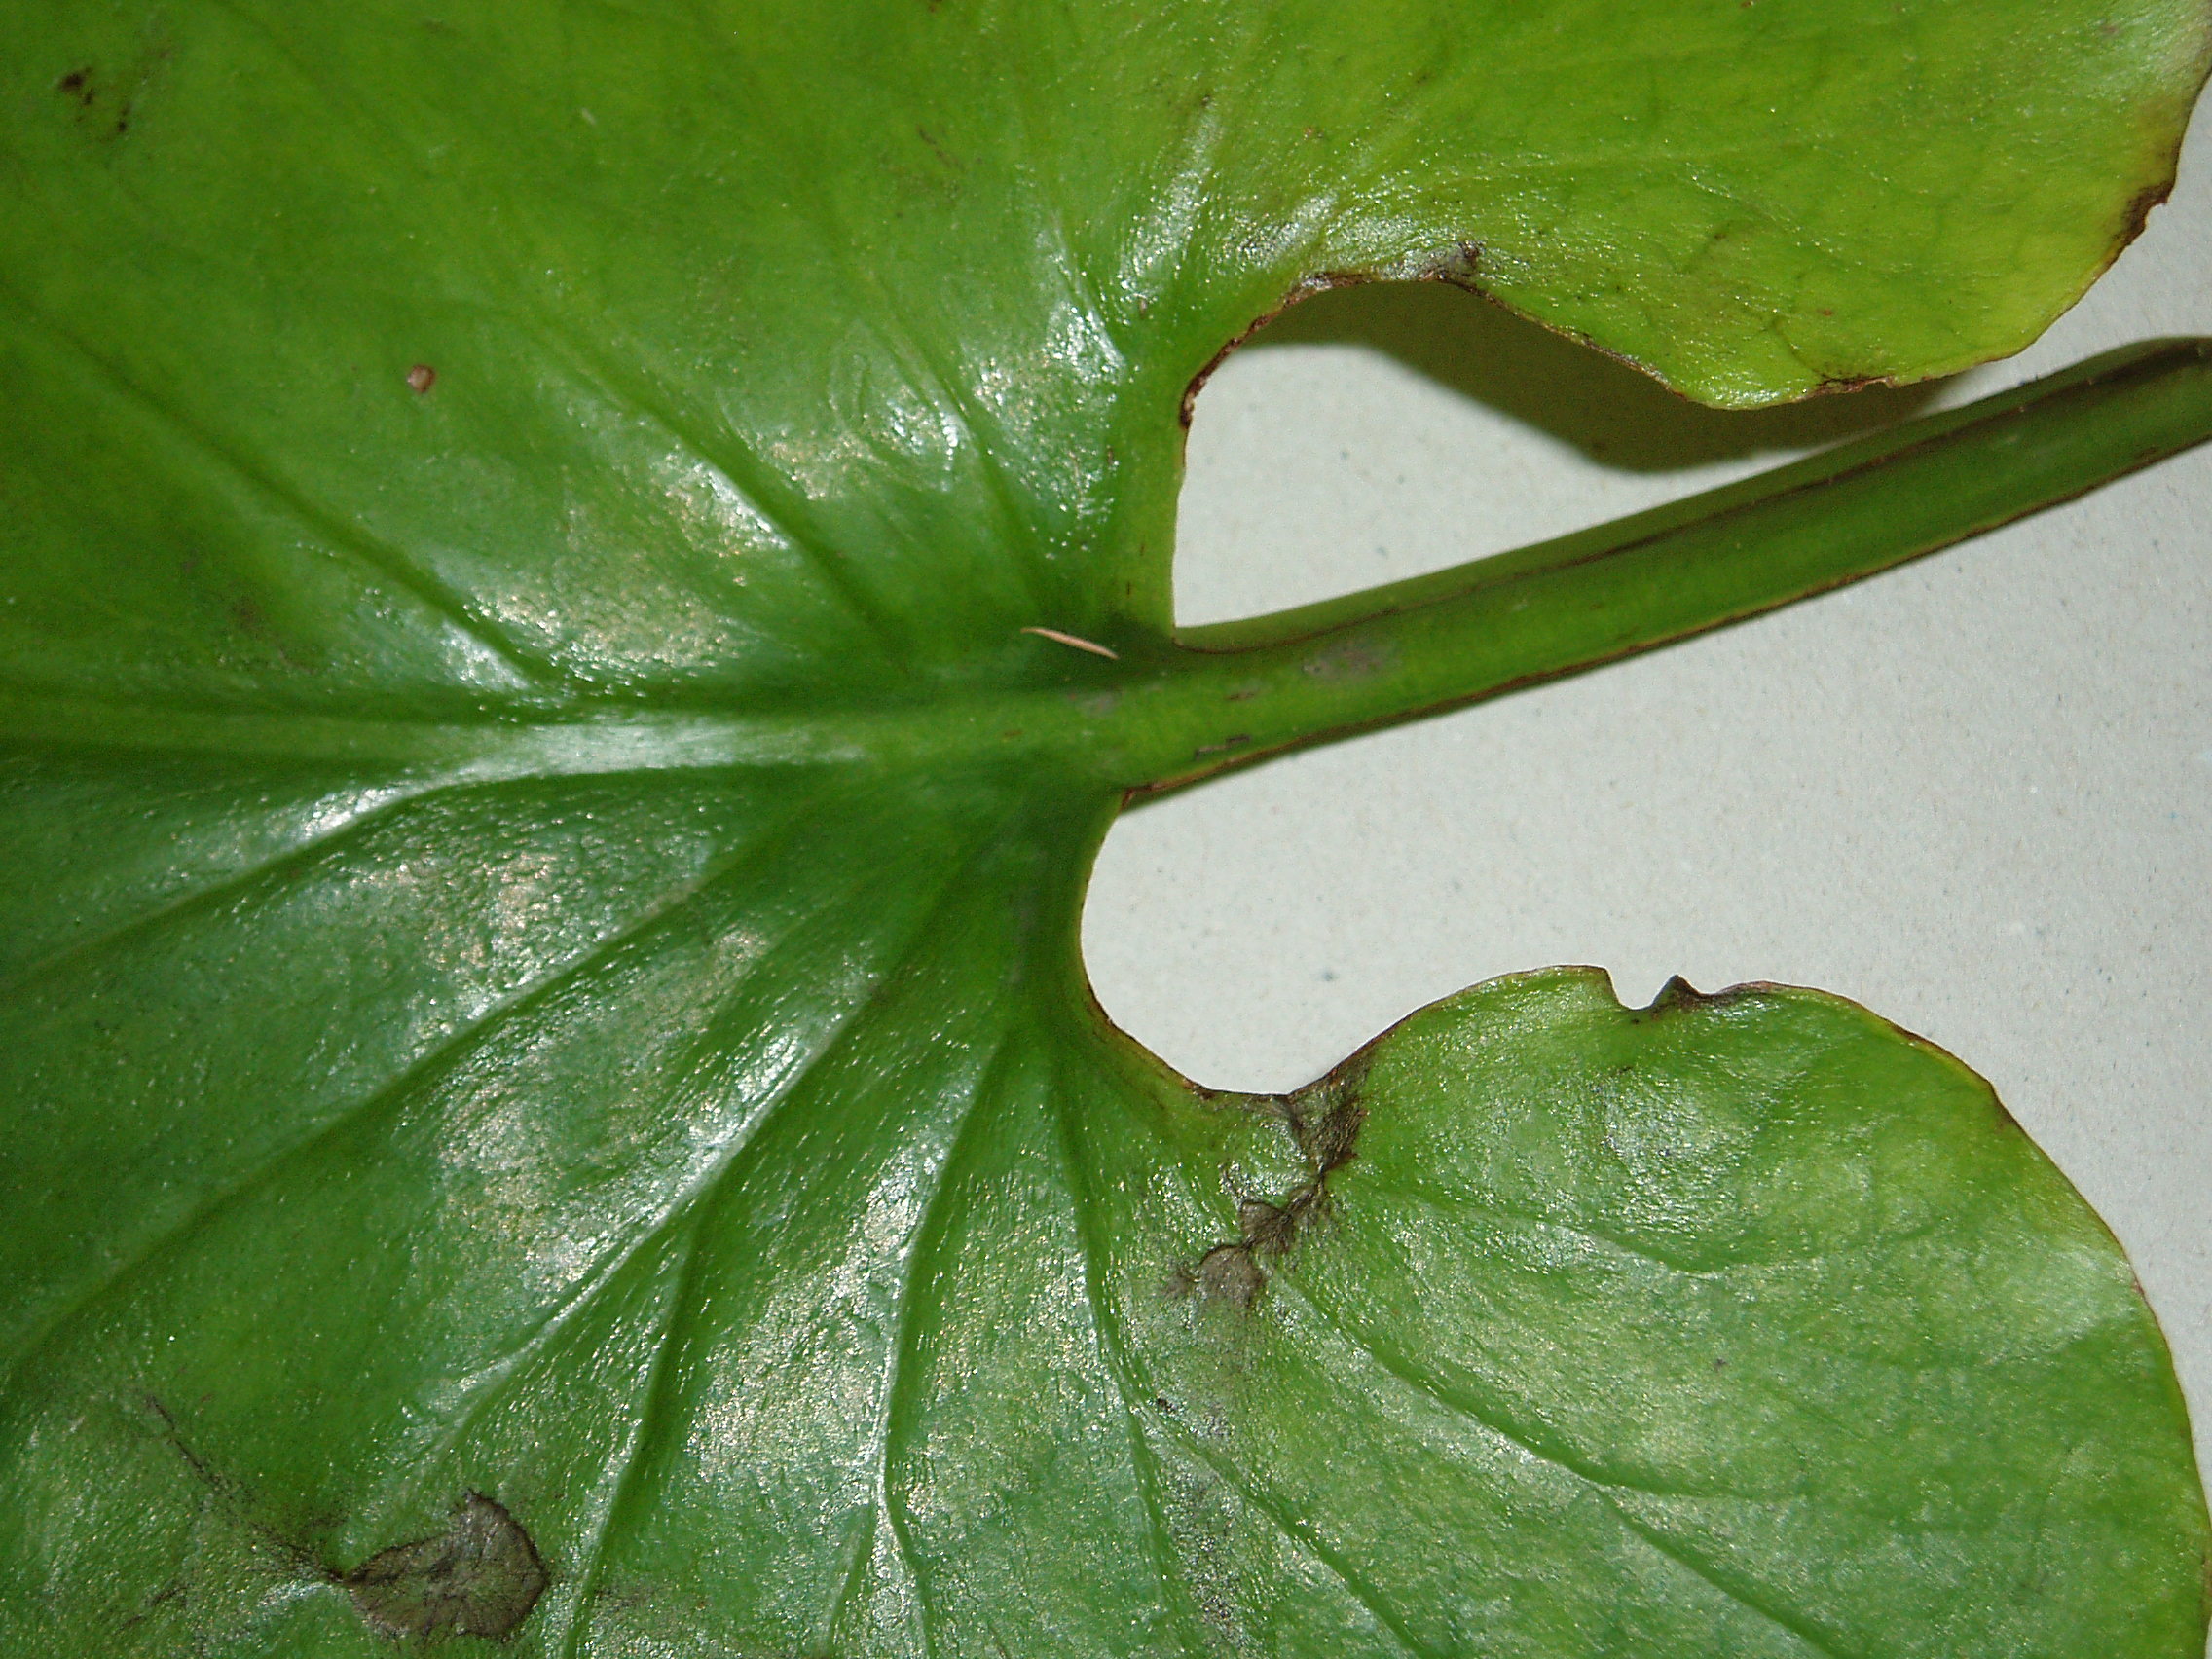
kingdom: Plantae
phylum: Tracheophyta
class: Liliopsida
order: Liliales
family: Liliaceae
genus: Cardiocrinum
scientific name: Cardiocrinum giganteum
